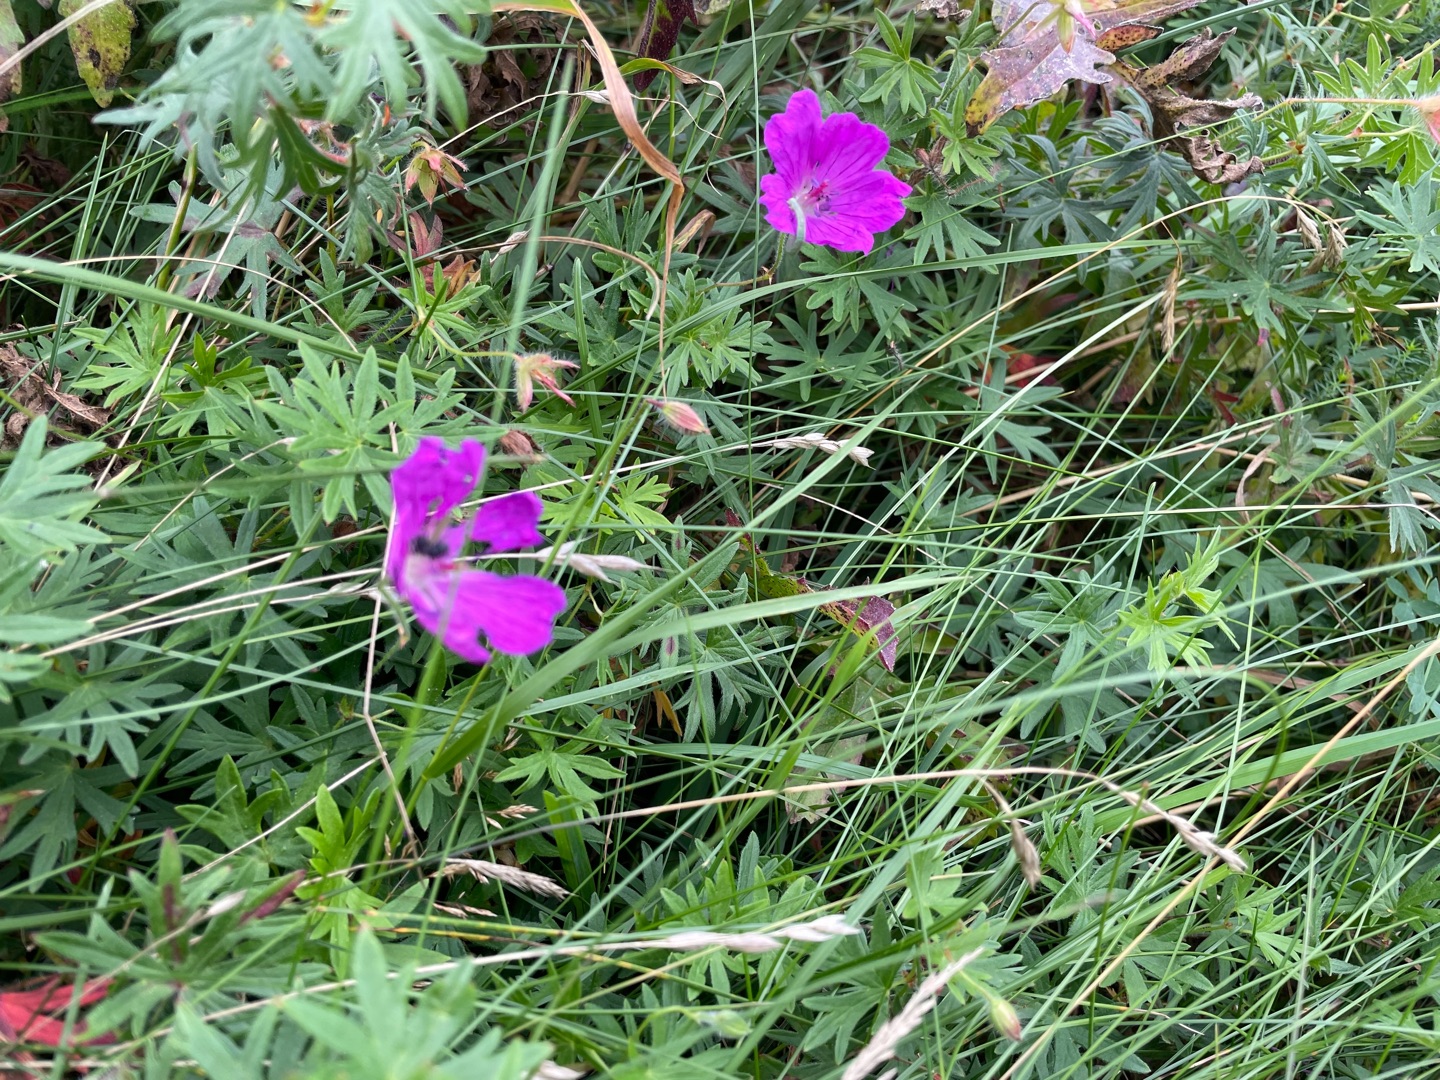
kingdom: Plantae
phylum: Tracheophyta
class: Magnoliopsida
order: Geraniales
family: Geraniaceae
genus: Geranium
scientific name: Geranium sanguineum
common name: Blodrød storkenæb
